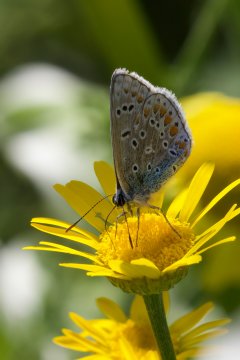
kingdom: Animalia
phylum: Arthropoda
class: Insecta
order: Lepidoptera
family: Lycaenidae
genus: Polyommatus
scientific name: Polyommatus icarus
